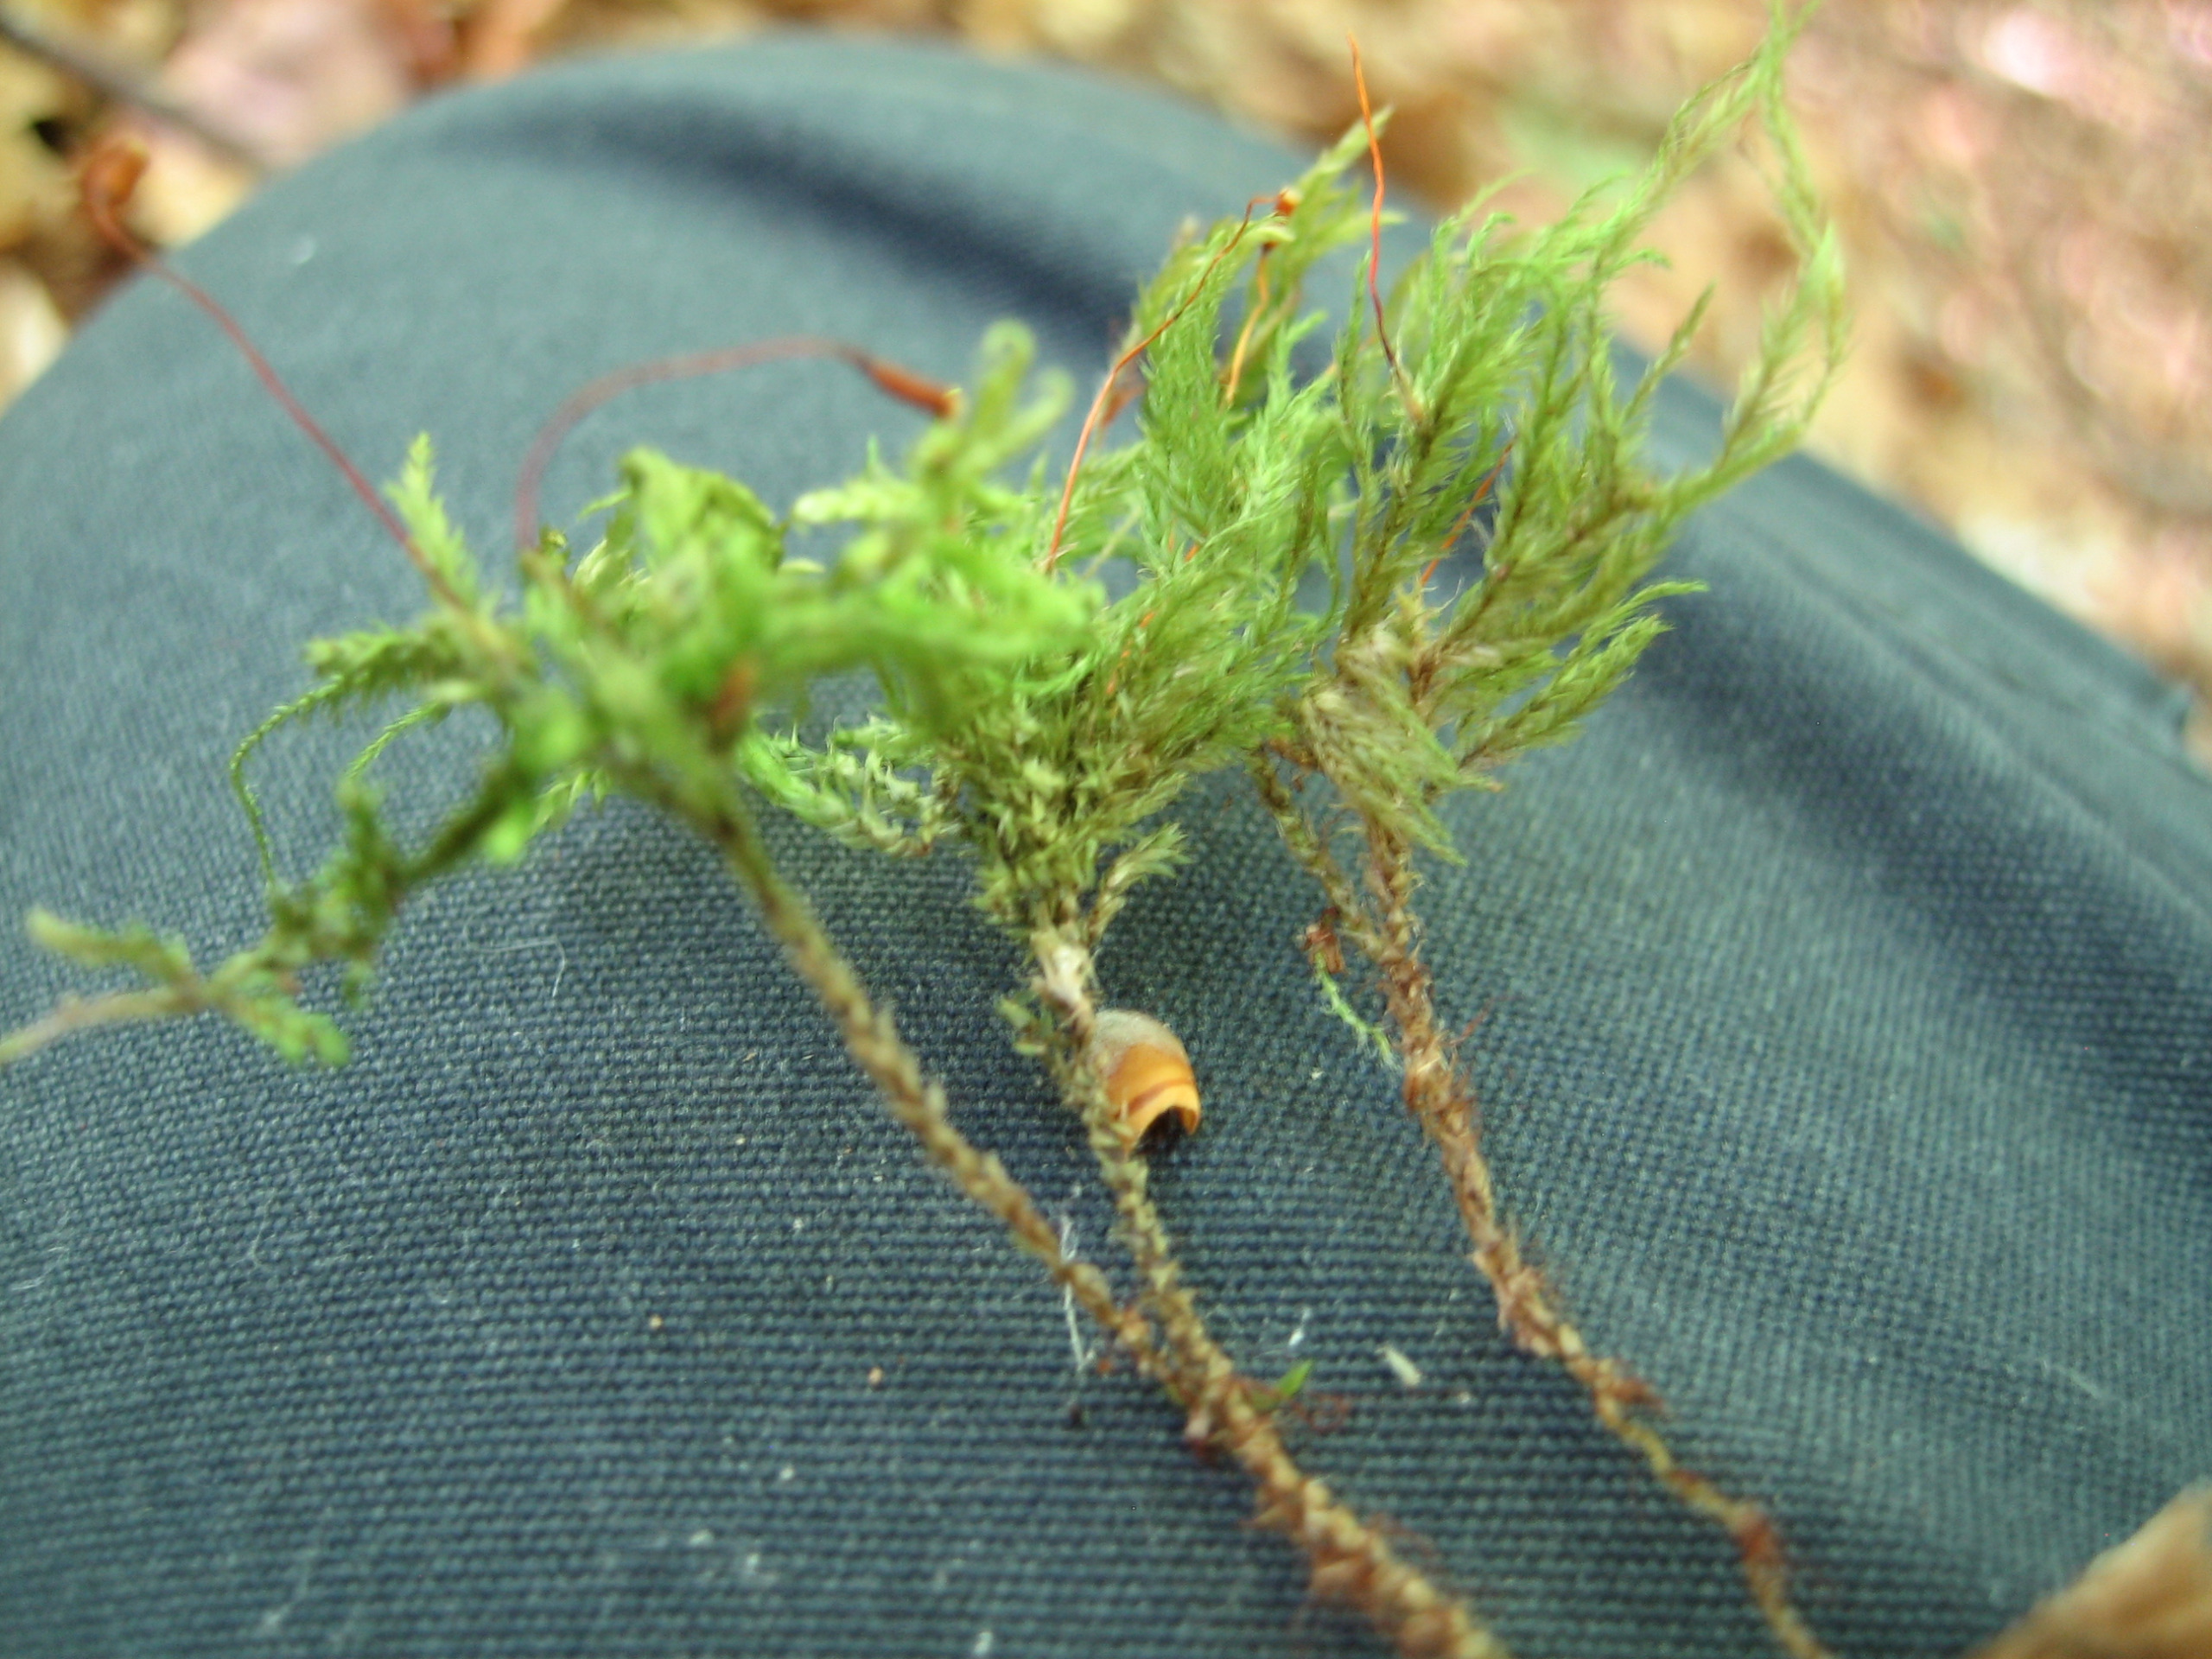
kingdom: Plantae
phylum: Bryophyta
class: Bryopsida
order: Hypnales
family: Lembophyllaceae
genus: Pseudisothecium
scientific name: Pseudisothecium myosuroides
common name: Slank stammemos
